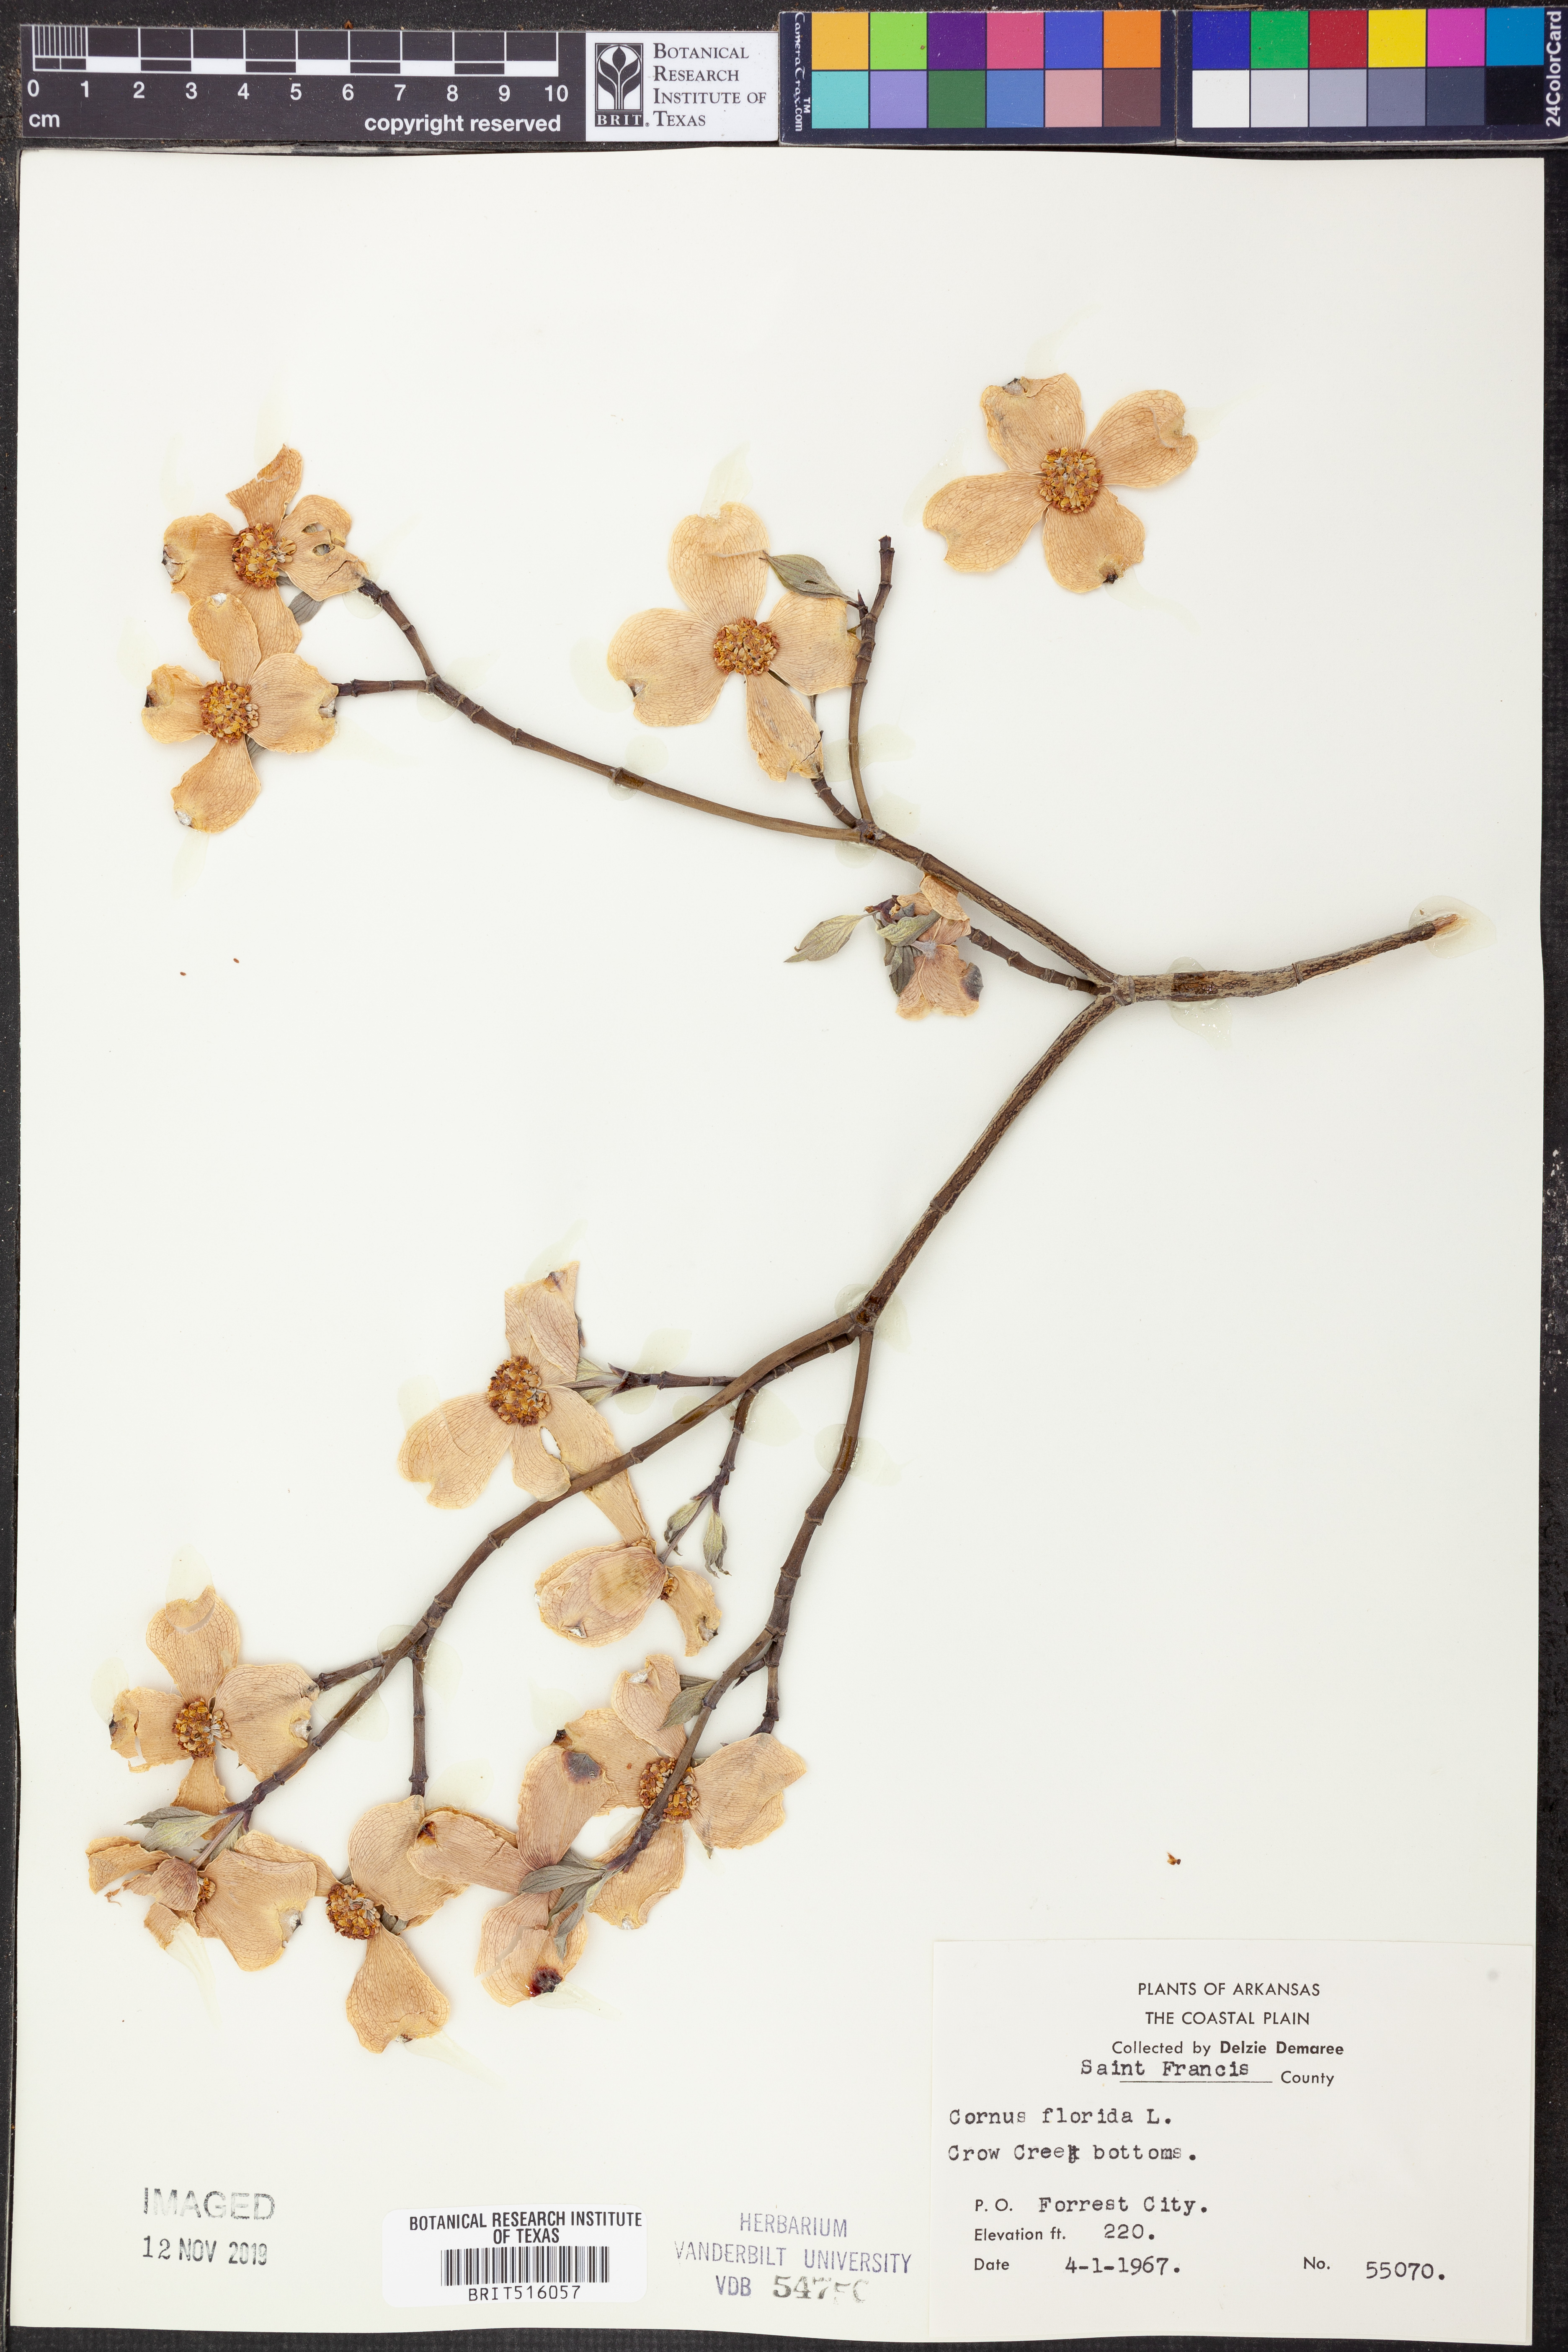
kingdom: Plantae
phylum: Tracheophyta
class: Magnoliopsida
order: Cornales
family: Cornaceae
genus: Cornus
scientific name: Cornus florida
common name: Flowering dogwood
